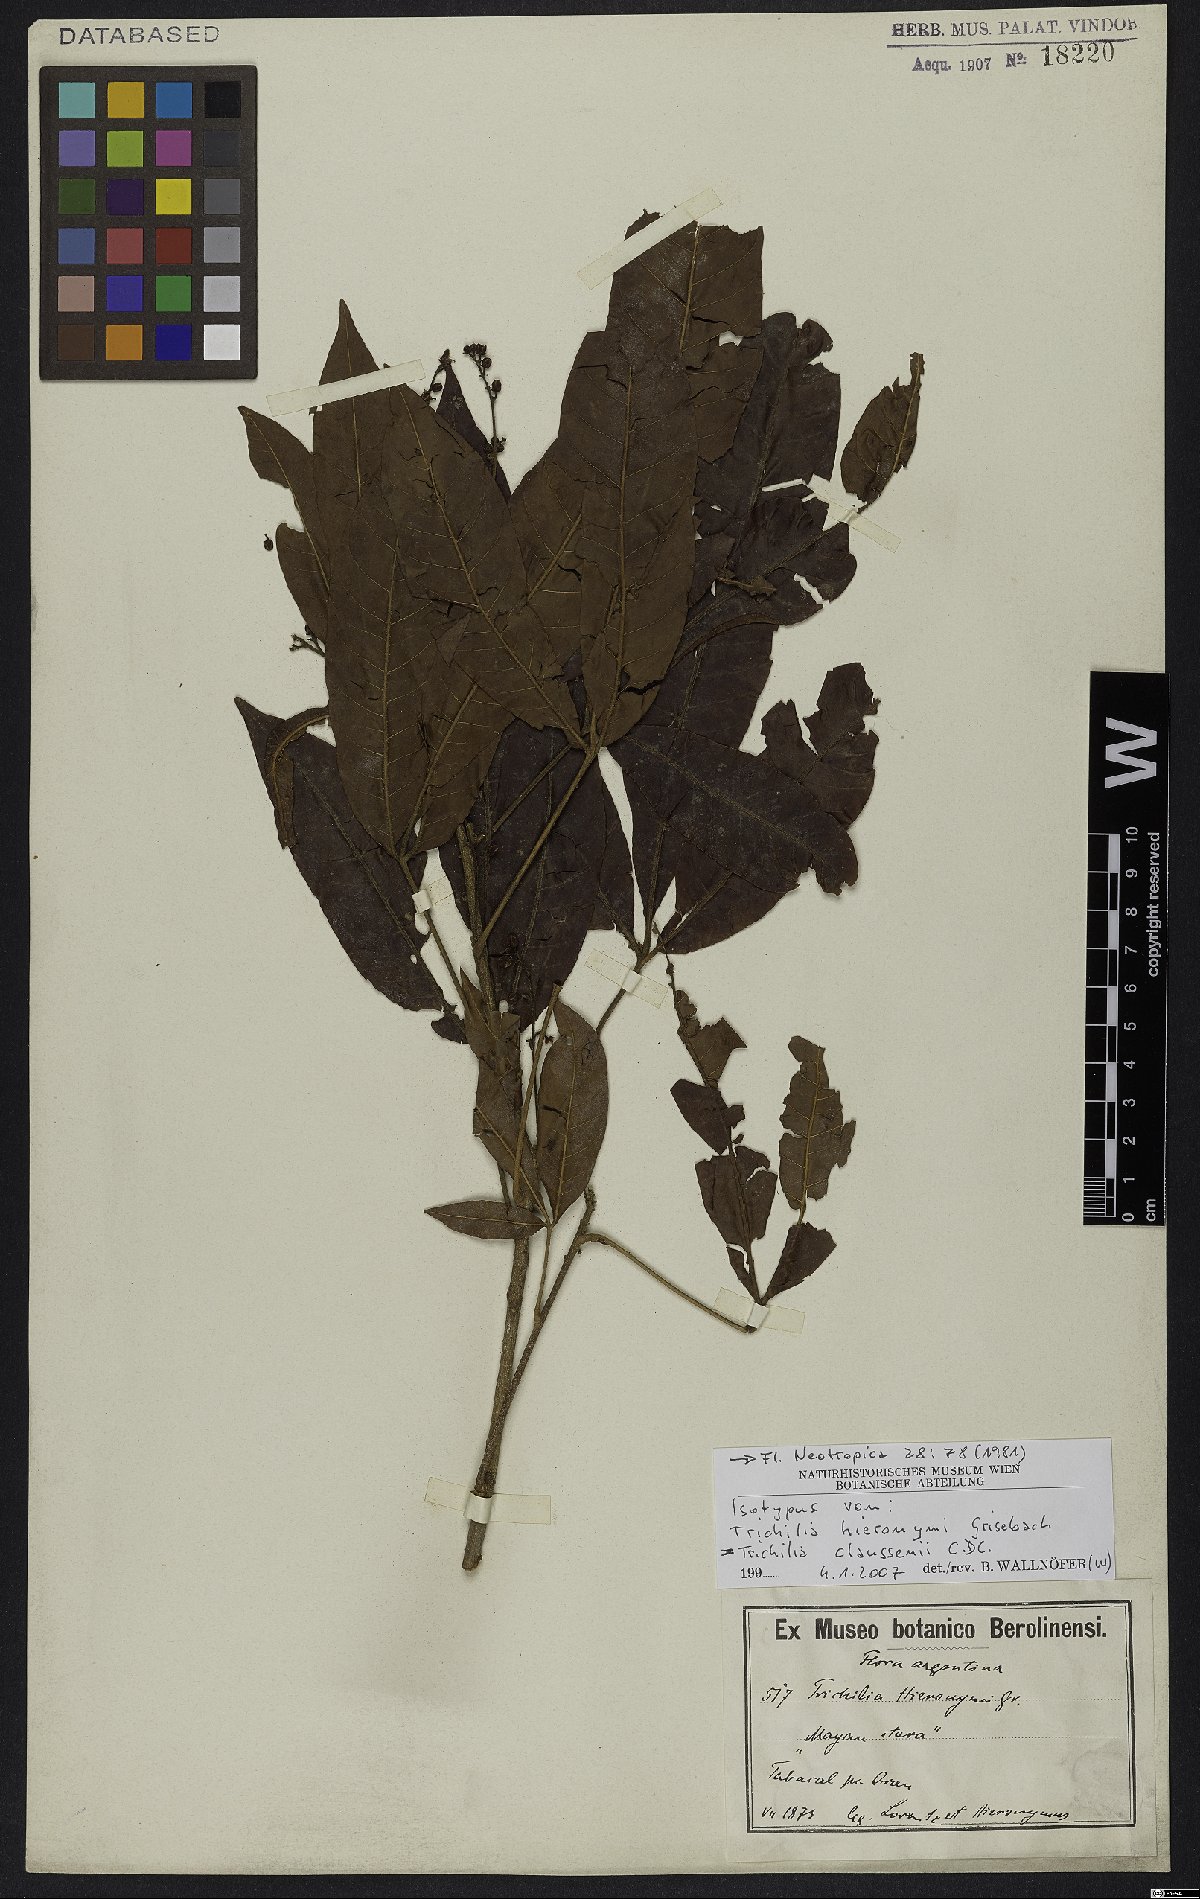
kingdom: Plantae
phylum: Tracheophyta
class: Magnoliopsida
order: Sapindales
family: Meliaceae
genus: Trichilia
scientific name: Trichilia claussenii
